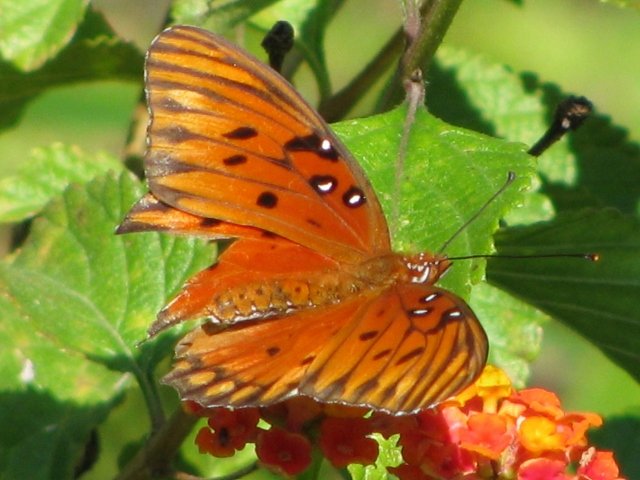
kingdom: Animalia
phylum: Arthropoda
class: Insecta
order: Lepidoptera
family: Nymphalidae
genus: Dione
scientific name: Dione vanillae
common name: Gulf Fritillary
